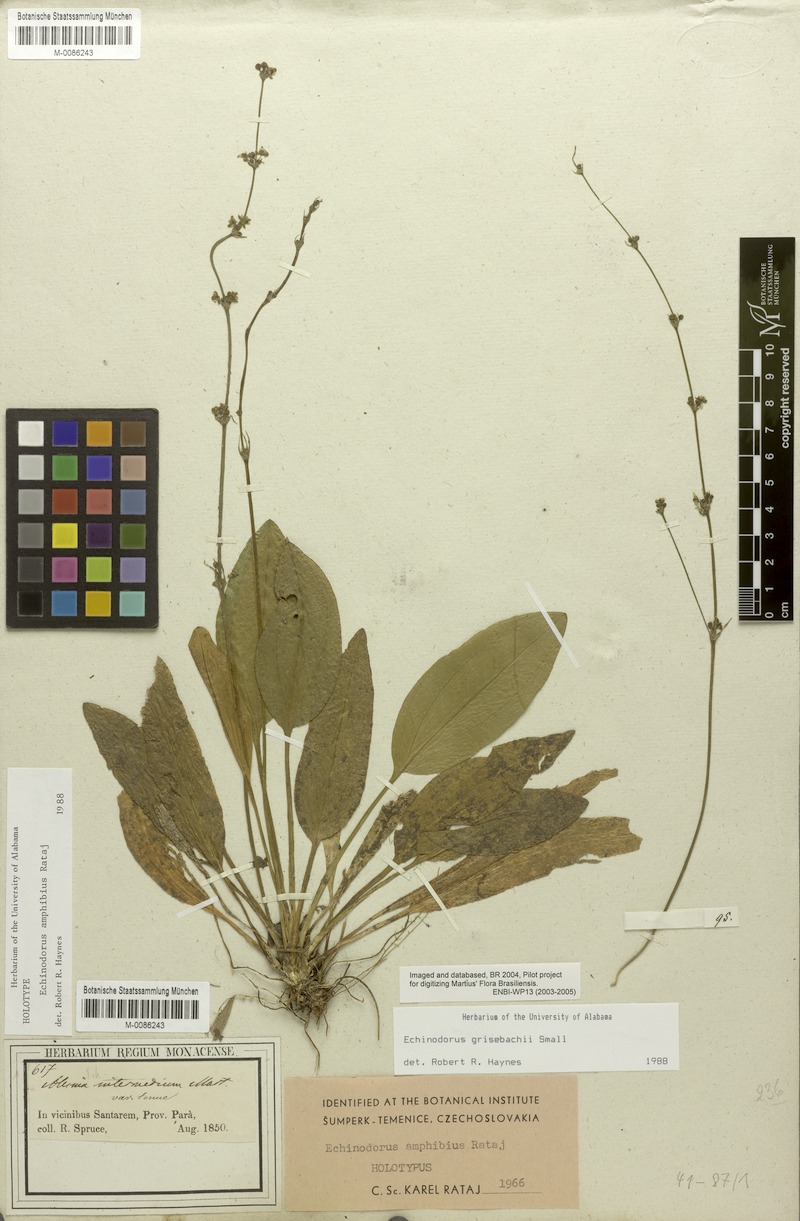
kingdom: Plantae
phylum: Tracheophyta
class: Liliopsida
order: Alismatales
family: Alismataceae
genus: Aquarius
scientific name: Aquarius grisebachii
